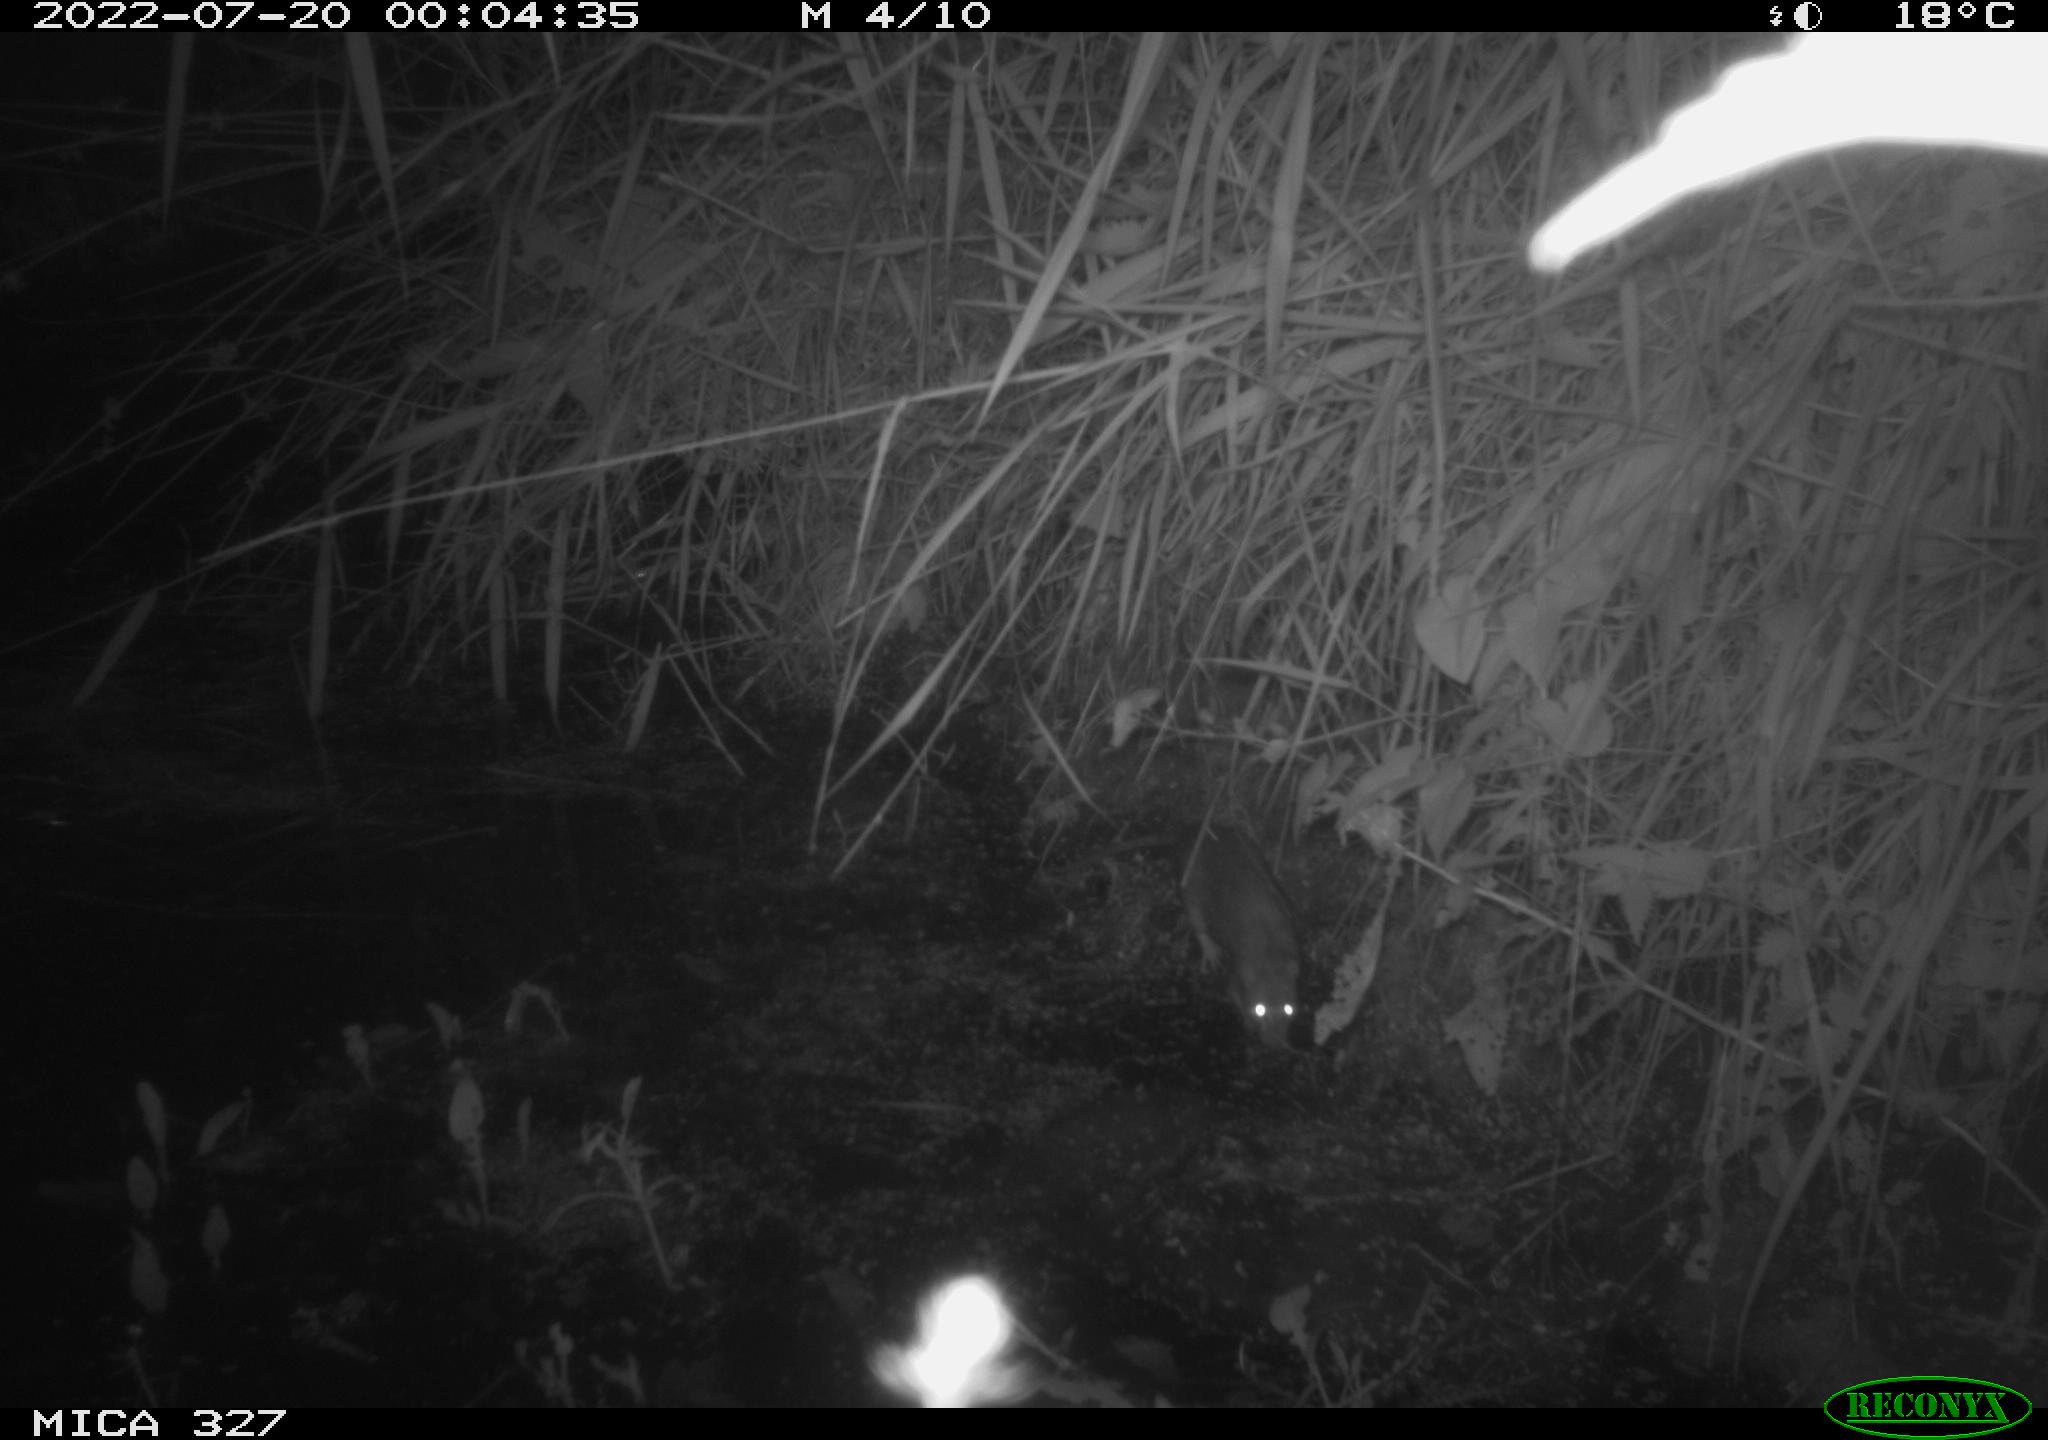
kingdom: Animalia
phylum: Chordata
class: Mammalia
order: Rodentia
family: Muridae
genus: Rattus
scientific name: Rattus norvegicus
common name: Brown rat
